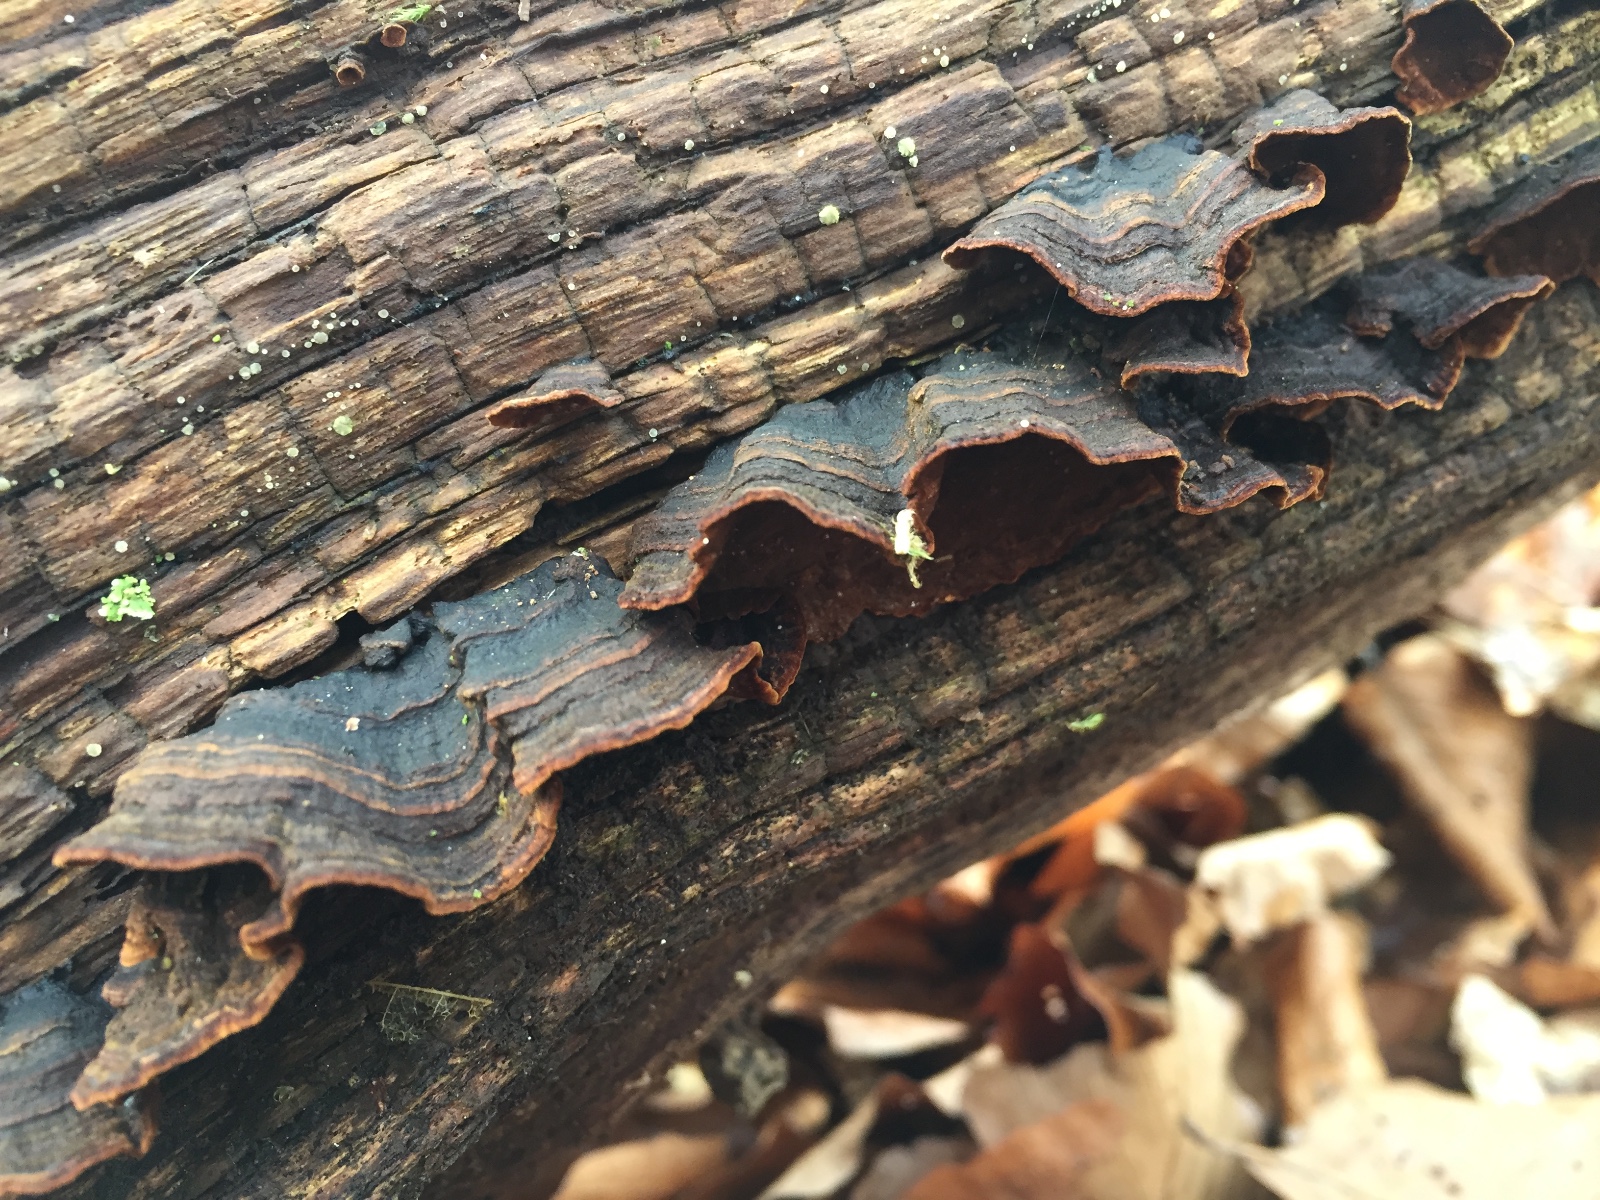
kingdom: Fungi
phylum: Basidiomycota
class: Agaricomycetes
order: Hymenochaetales
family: Hymenochaetaceae
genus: Hymenochaete
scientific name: Hymenochaete rubiginosa
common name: stiv ruslædersvamp
